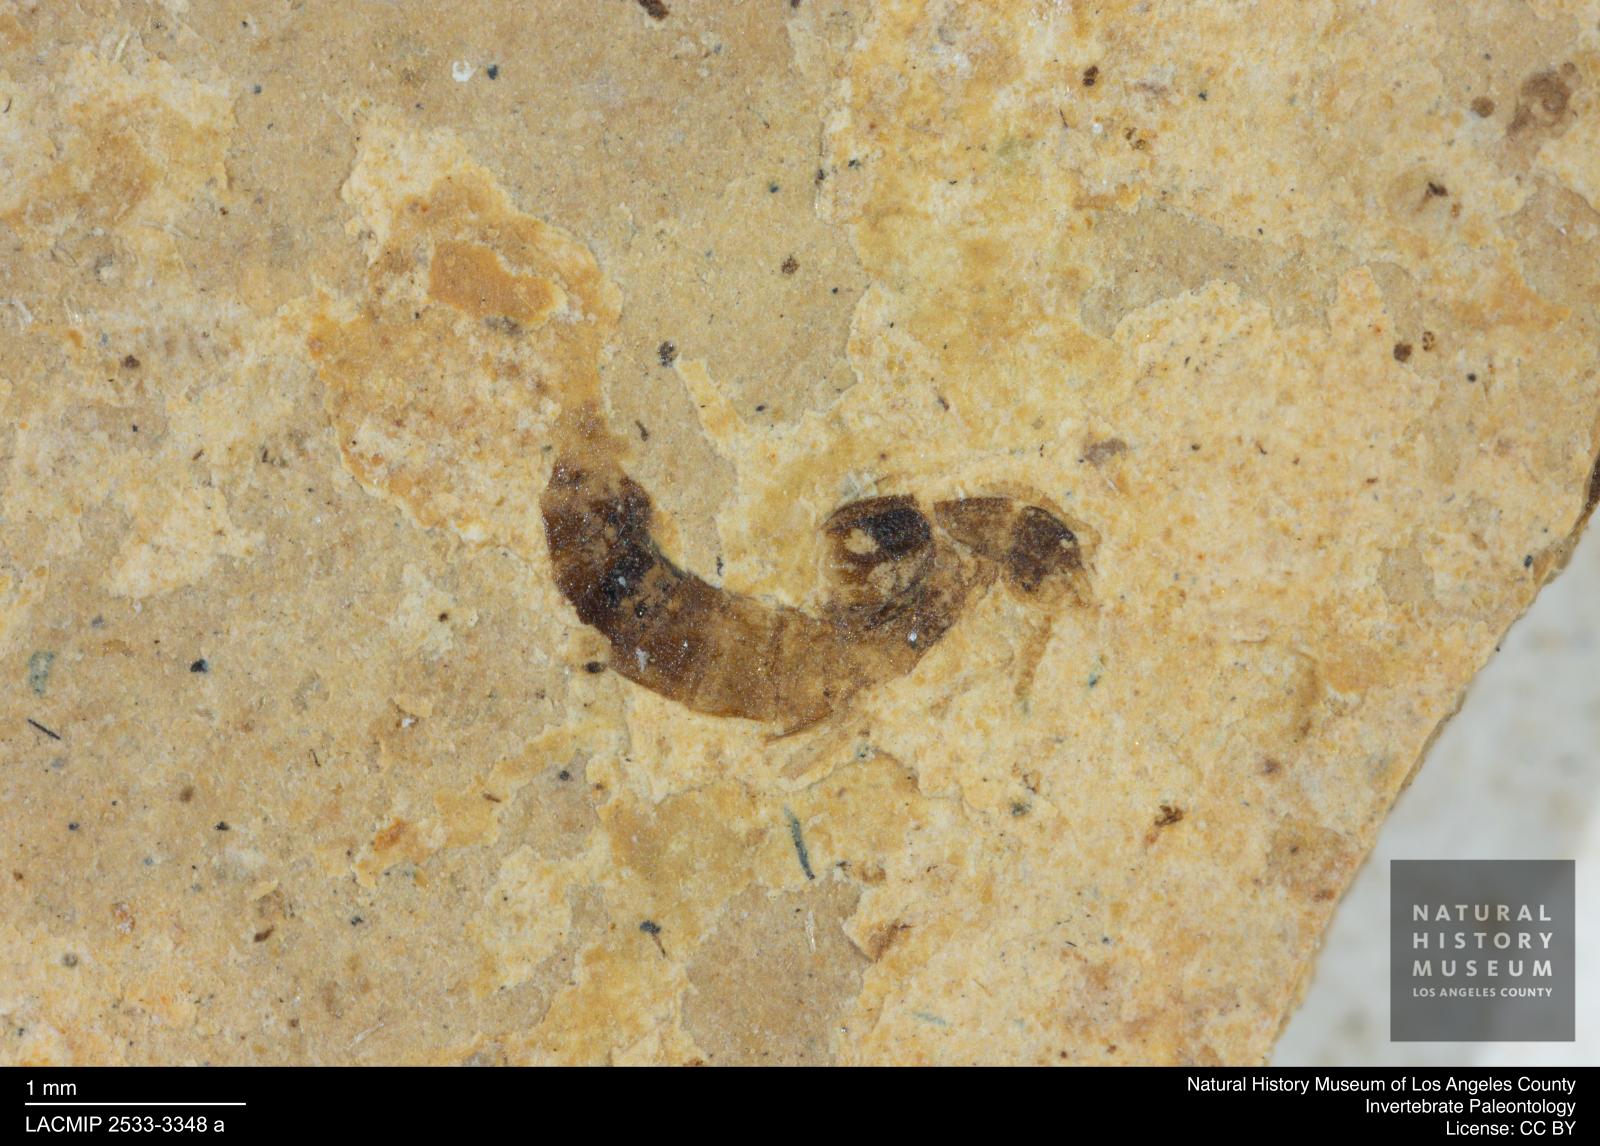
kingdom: Animalia
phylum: Arthropoda
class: Insecta
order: Coleoptera
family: Staphylinidae
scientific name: Staphylinidae
